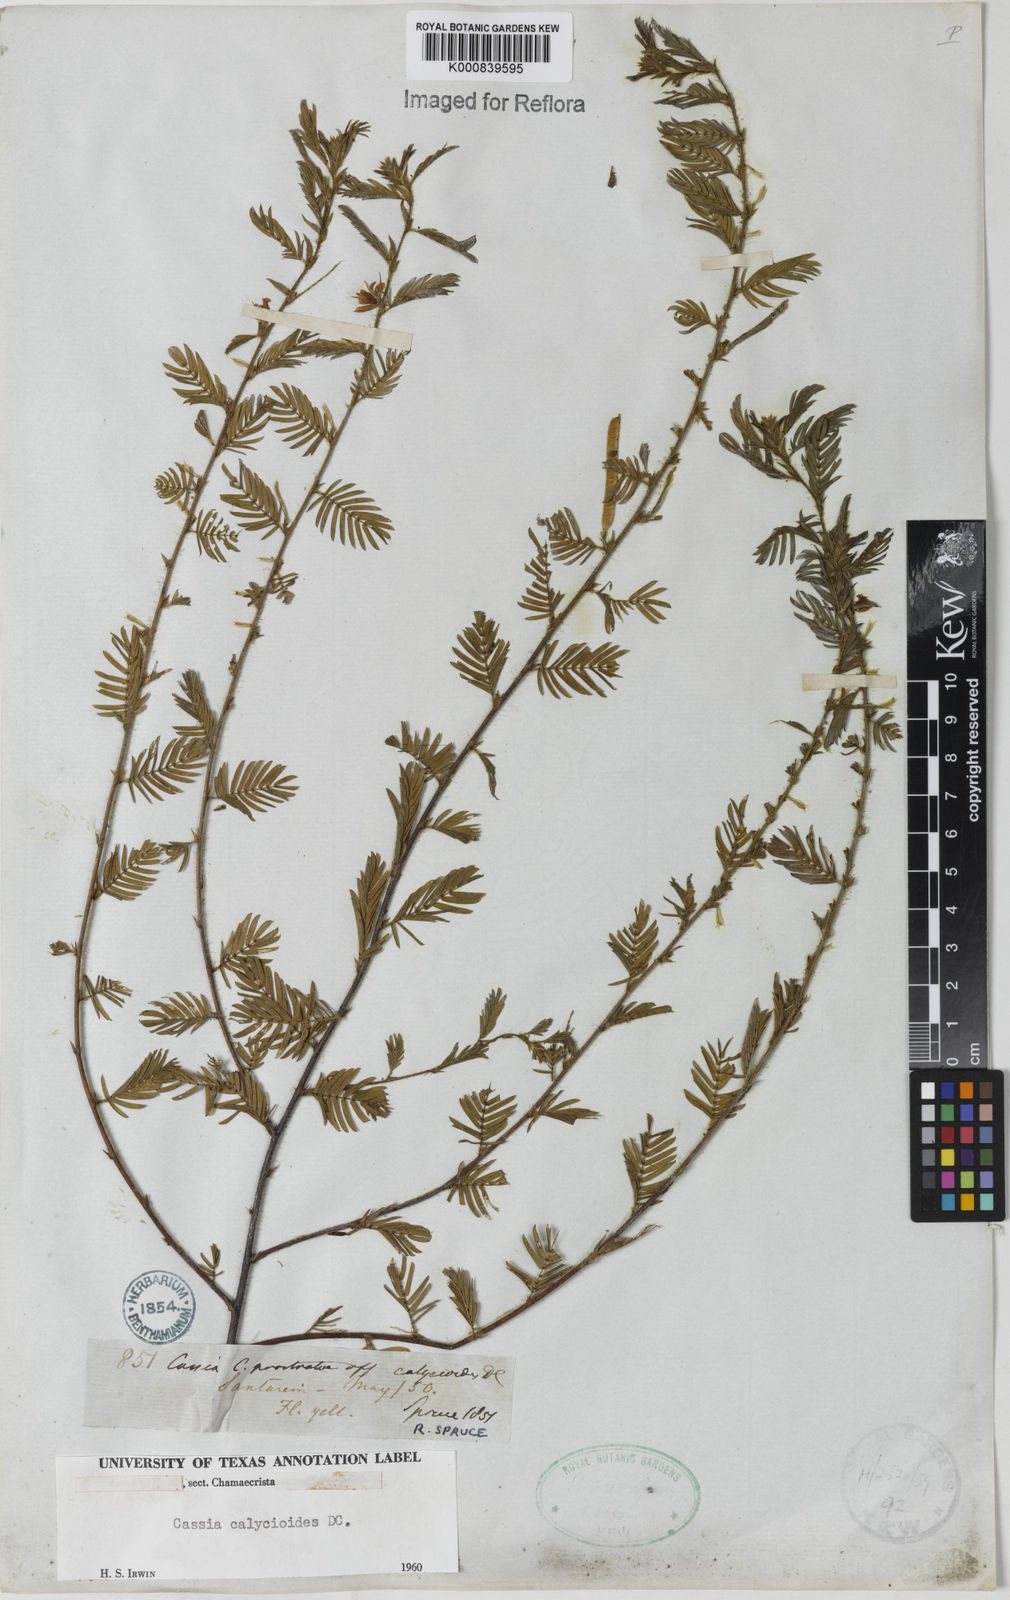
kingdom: Plantae
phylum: Tracheophyta
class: Magnoliopsida
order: Fabales
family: Fabaceae
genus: Chamaecrista
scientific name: Chamaecrista calycioides
